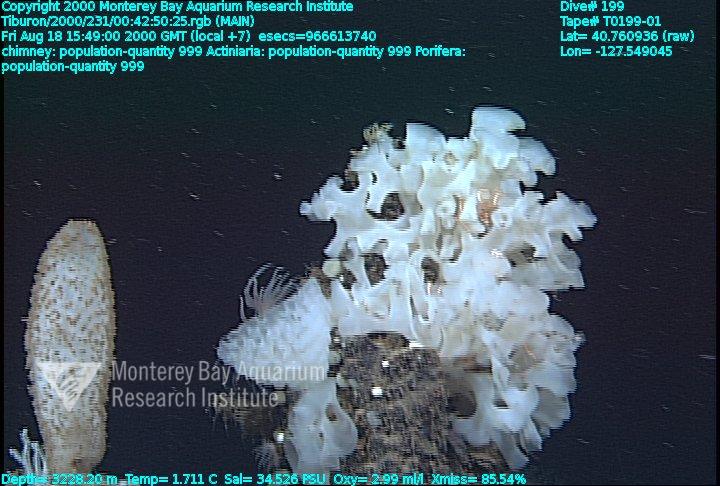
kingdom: Animalia
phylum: Porifera
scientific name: Porifera
